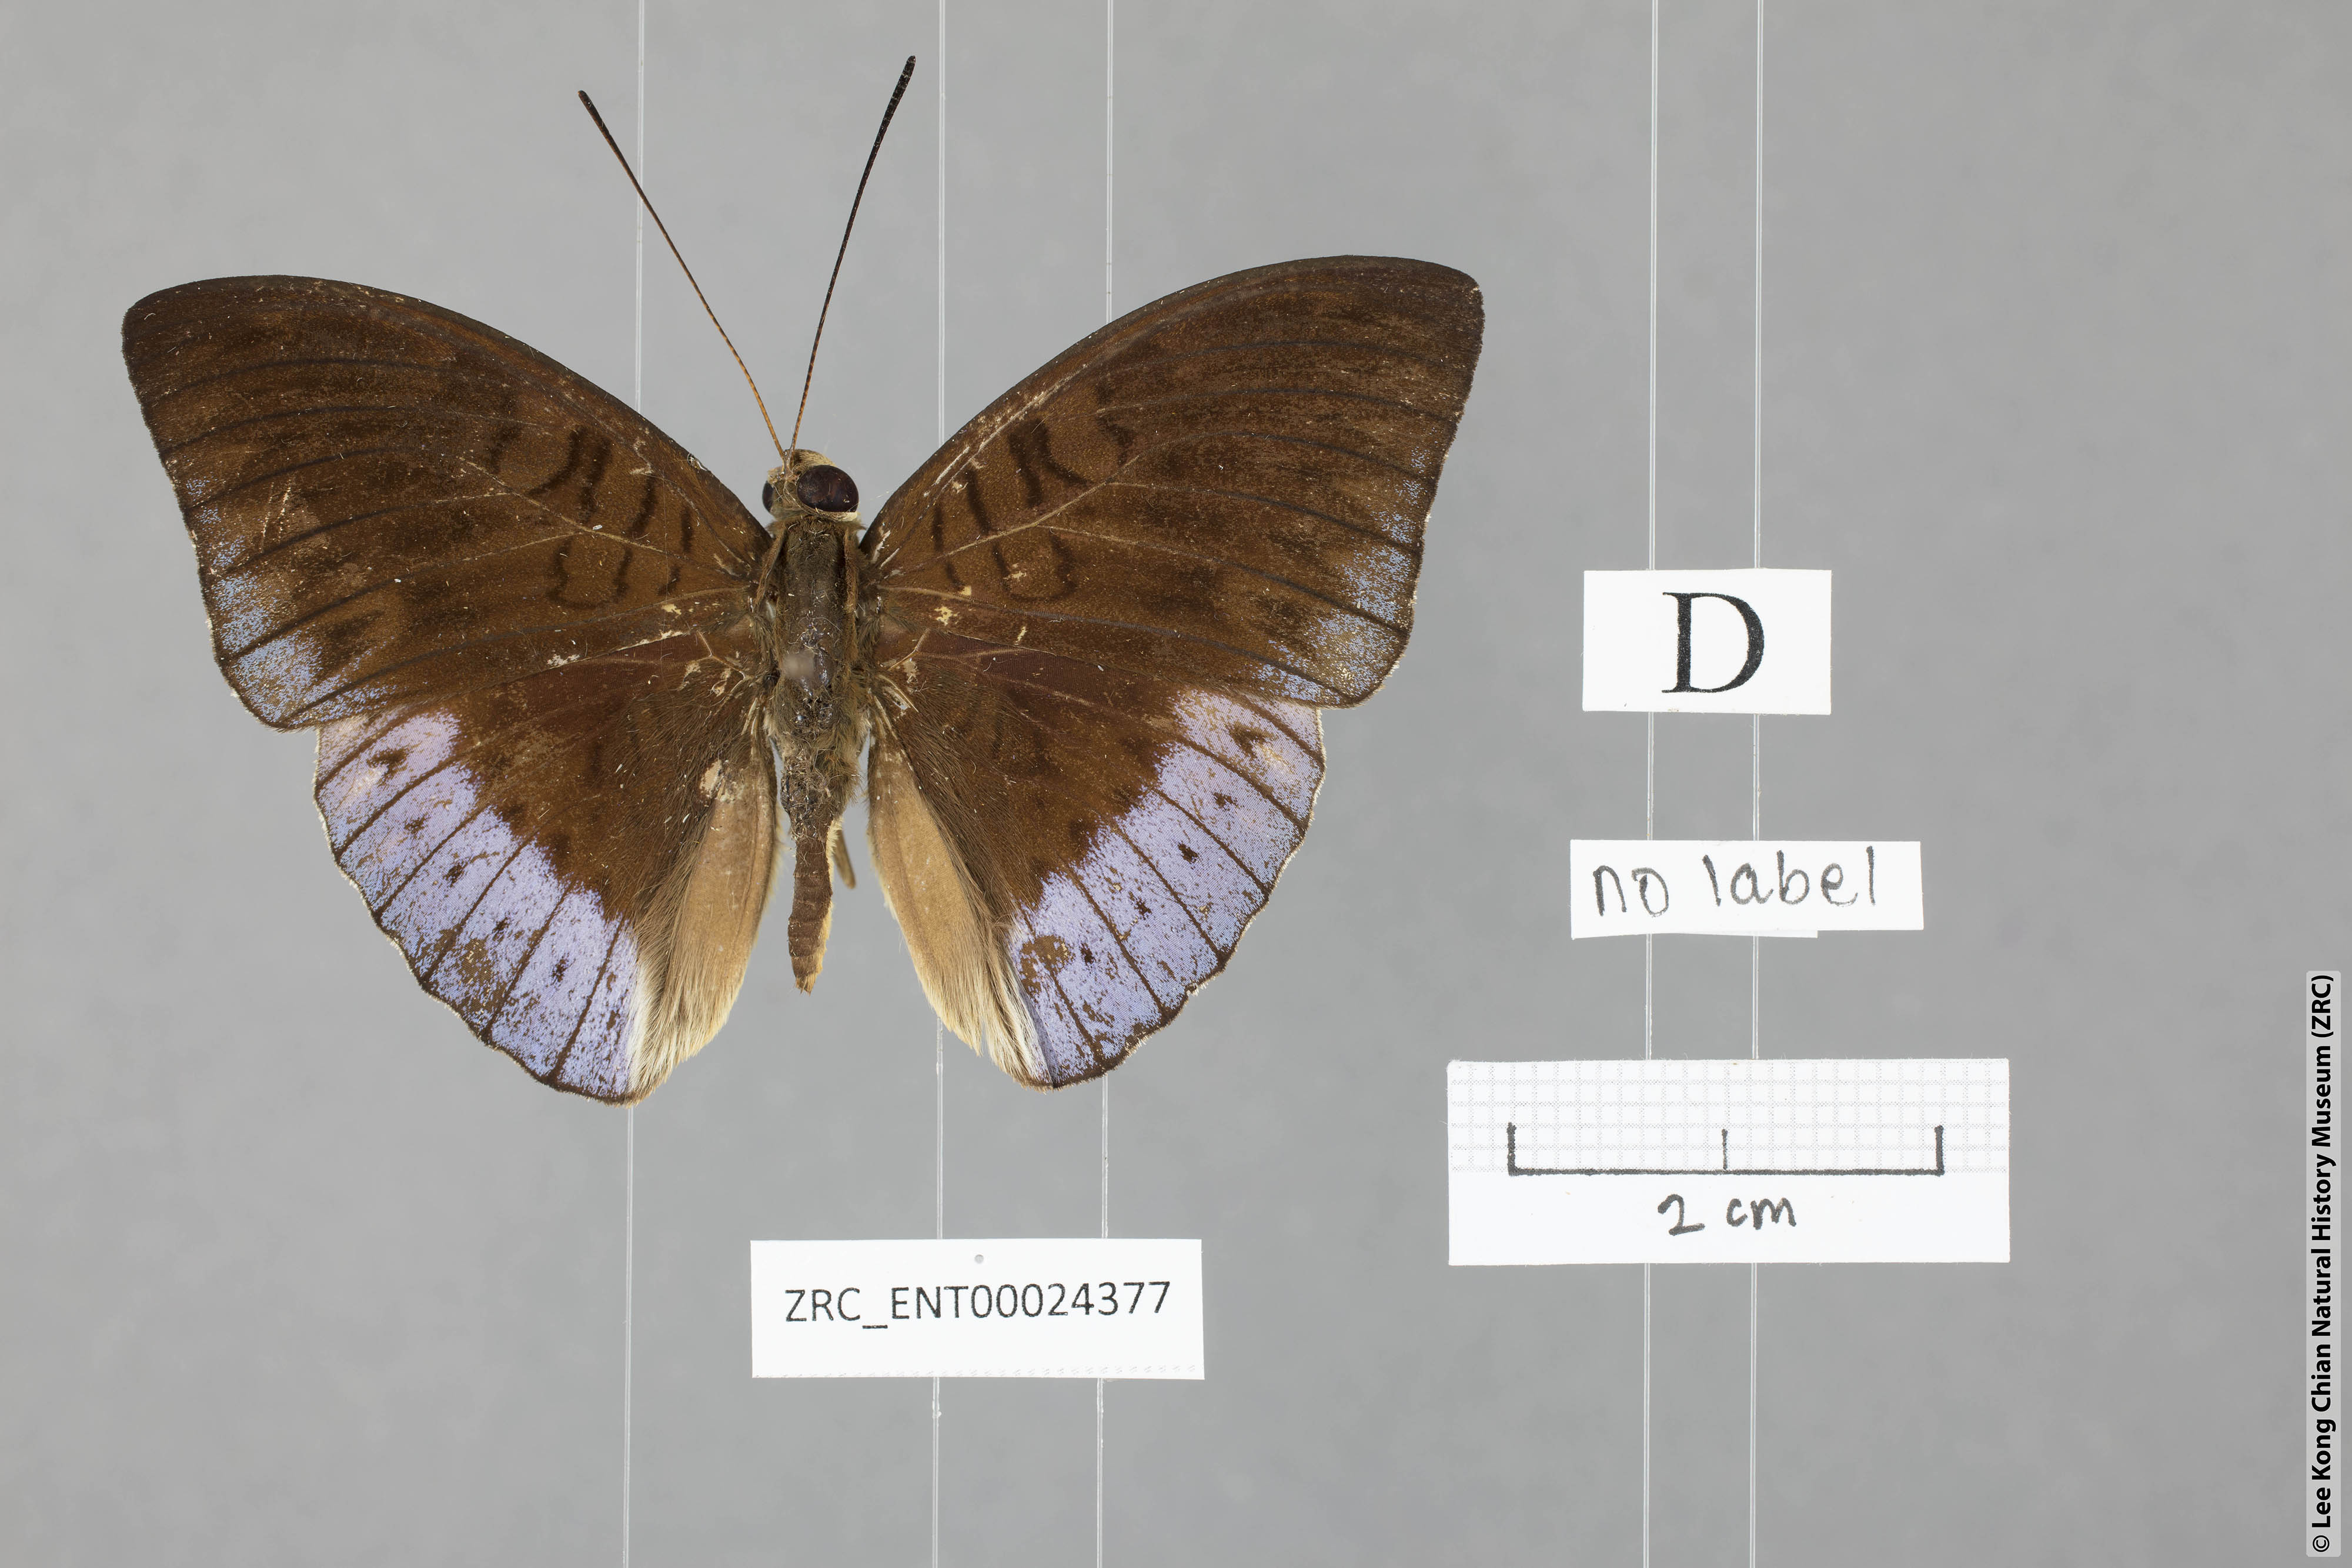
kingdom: Animalia
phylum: Arthropoda
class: Insecta
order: Lepidoptera
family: Nymphalidae
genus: Tanaecia
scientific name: Tanaecia clathrata
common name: Violet-bordered viscount
